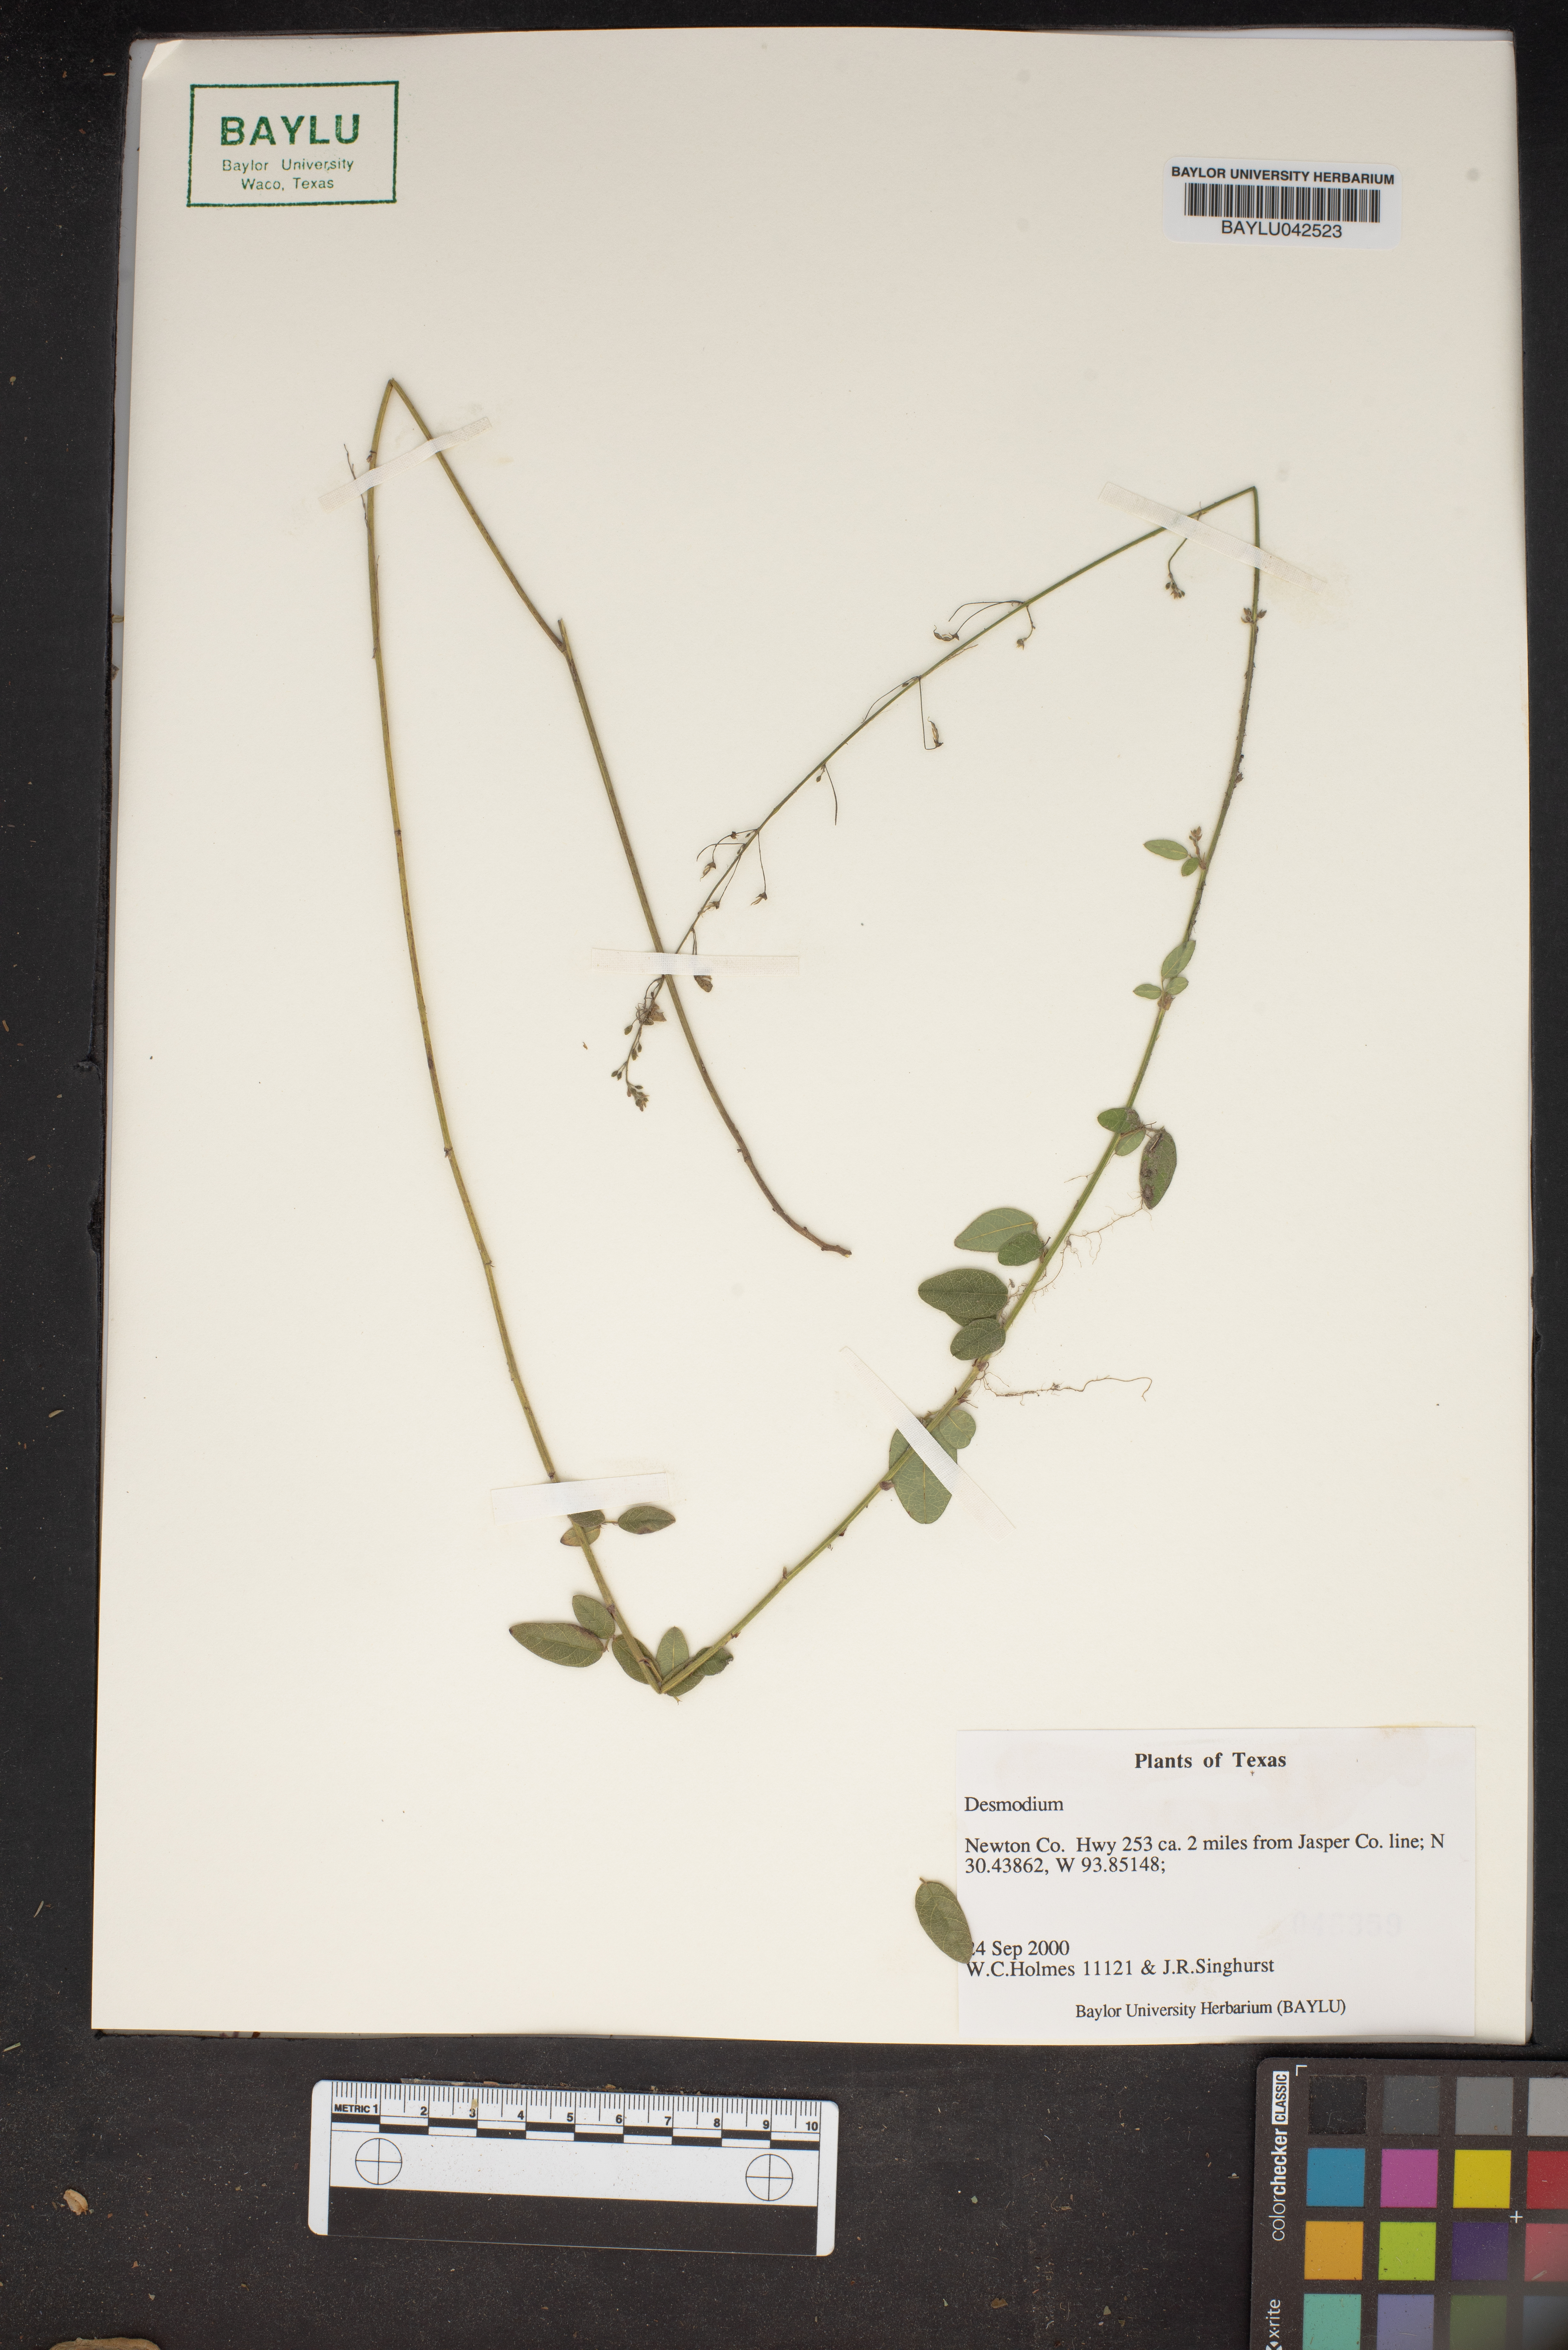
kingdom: Plantae
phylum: Tracheophyta
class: Magnoliopsida
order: Fabales
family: Fabaceae
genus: Desmodium
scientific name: Desmodium
